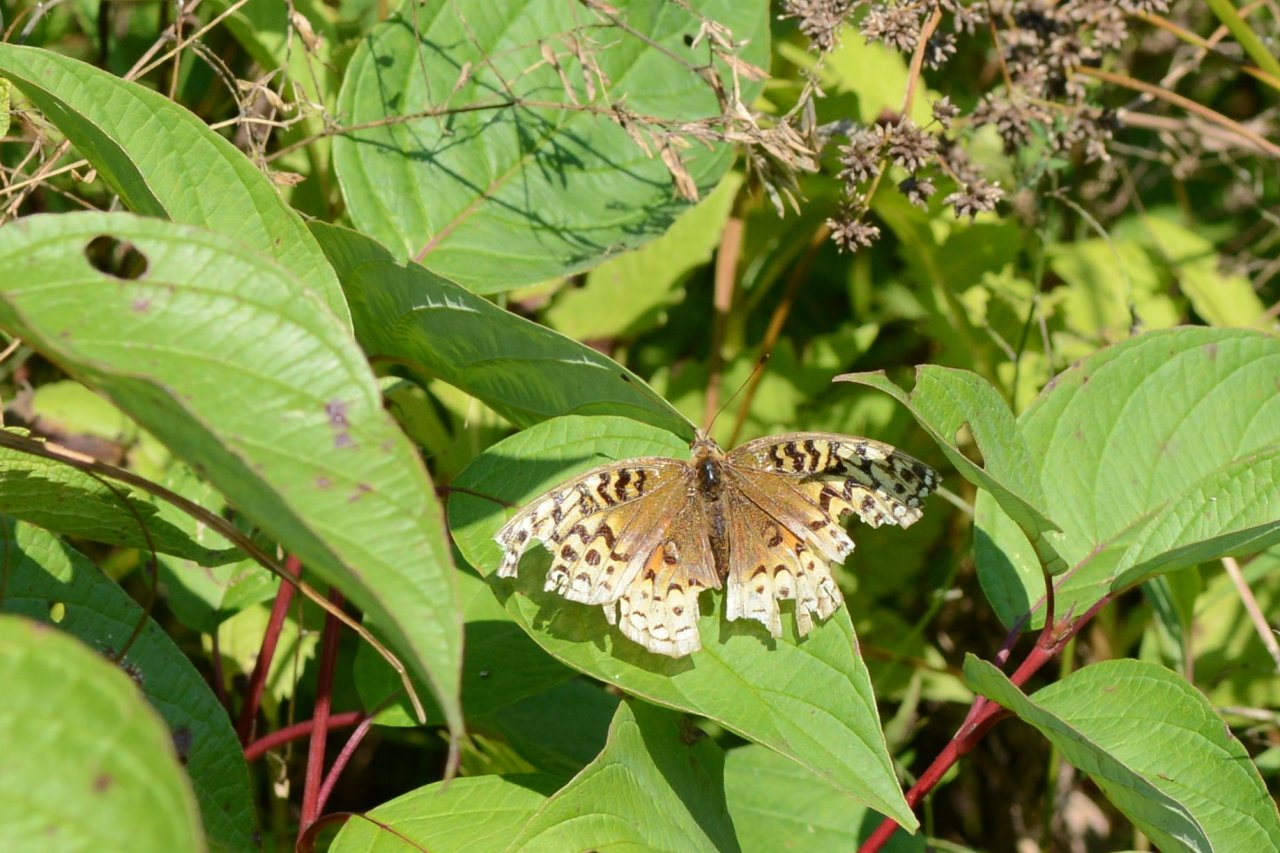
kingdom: Animalia
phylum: Arthropoda
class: Insecta
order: Lepidoptera
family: Nymphalidae
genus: Speyeria
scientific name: Speyeria cybele
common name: Great Spangled Fritillary
